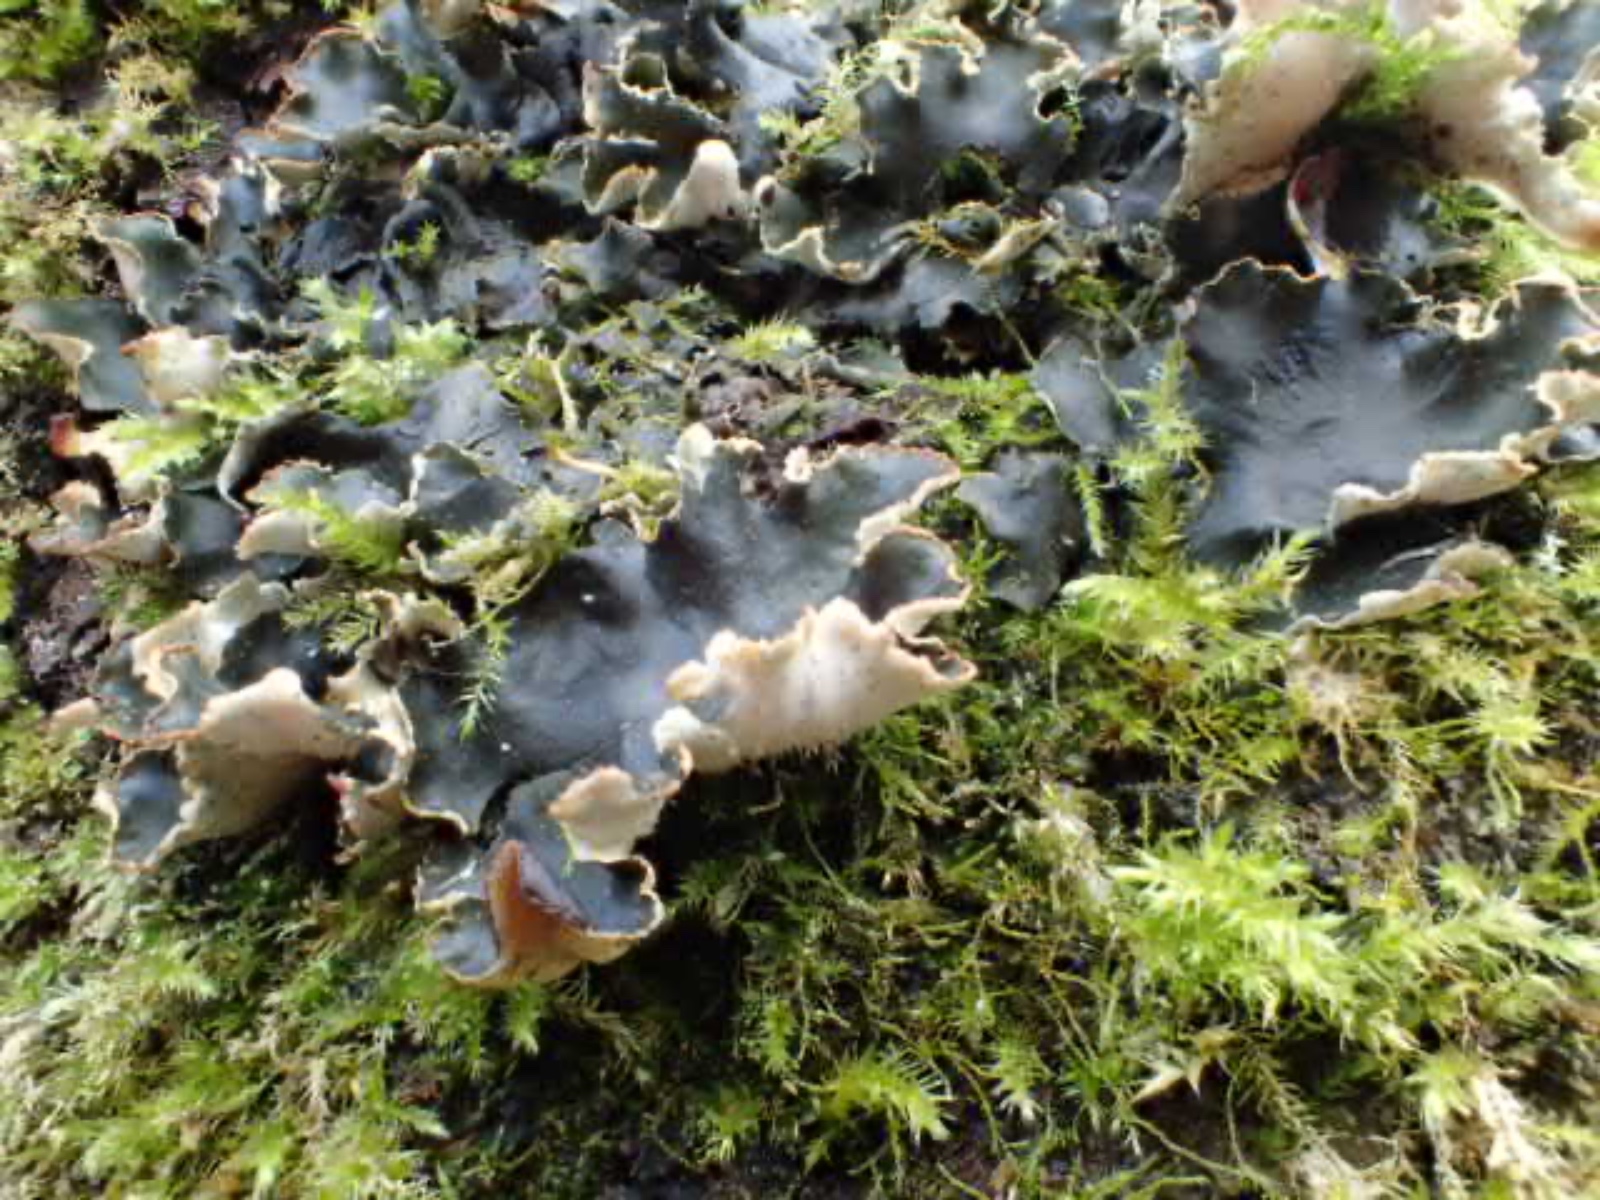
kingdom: Fungi
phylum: Ascomycota
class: Lecanoromycetes
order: Peltigerales
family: Peltigeraceae
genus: Peltigera
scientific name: Peltigera
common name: skjoldlav
